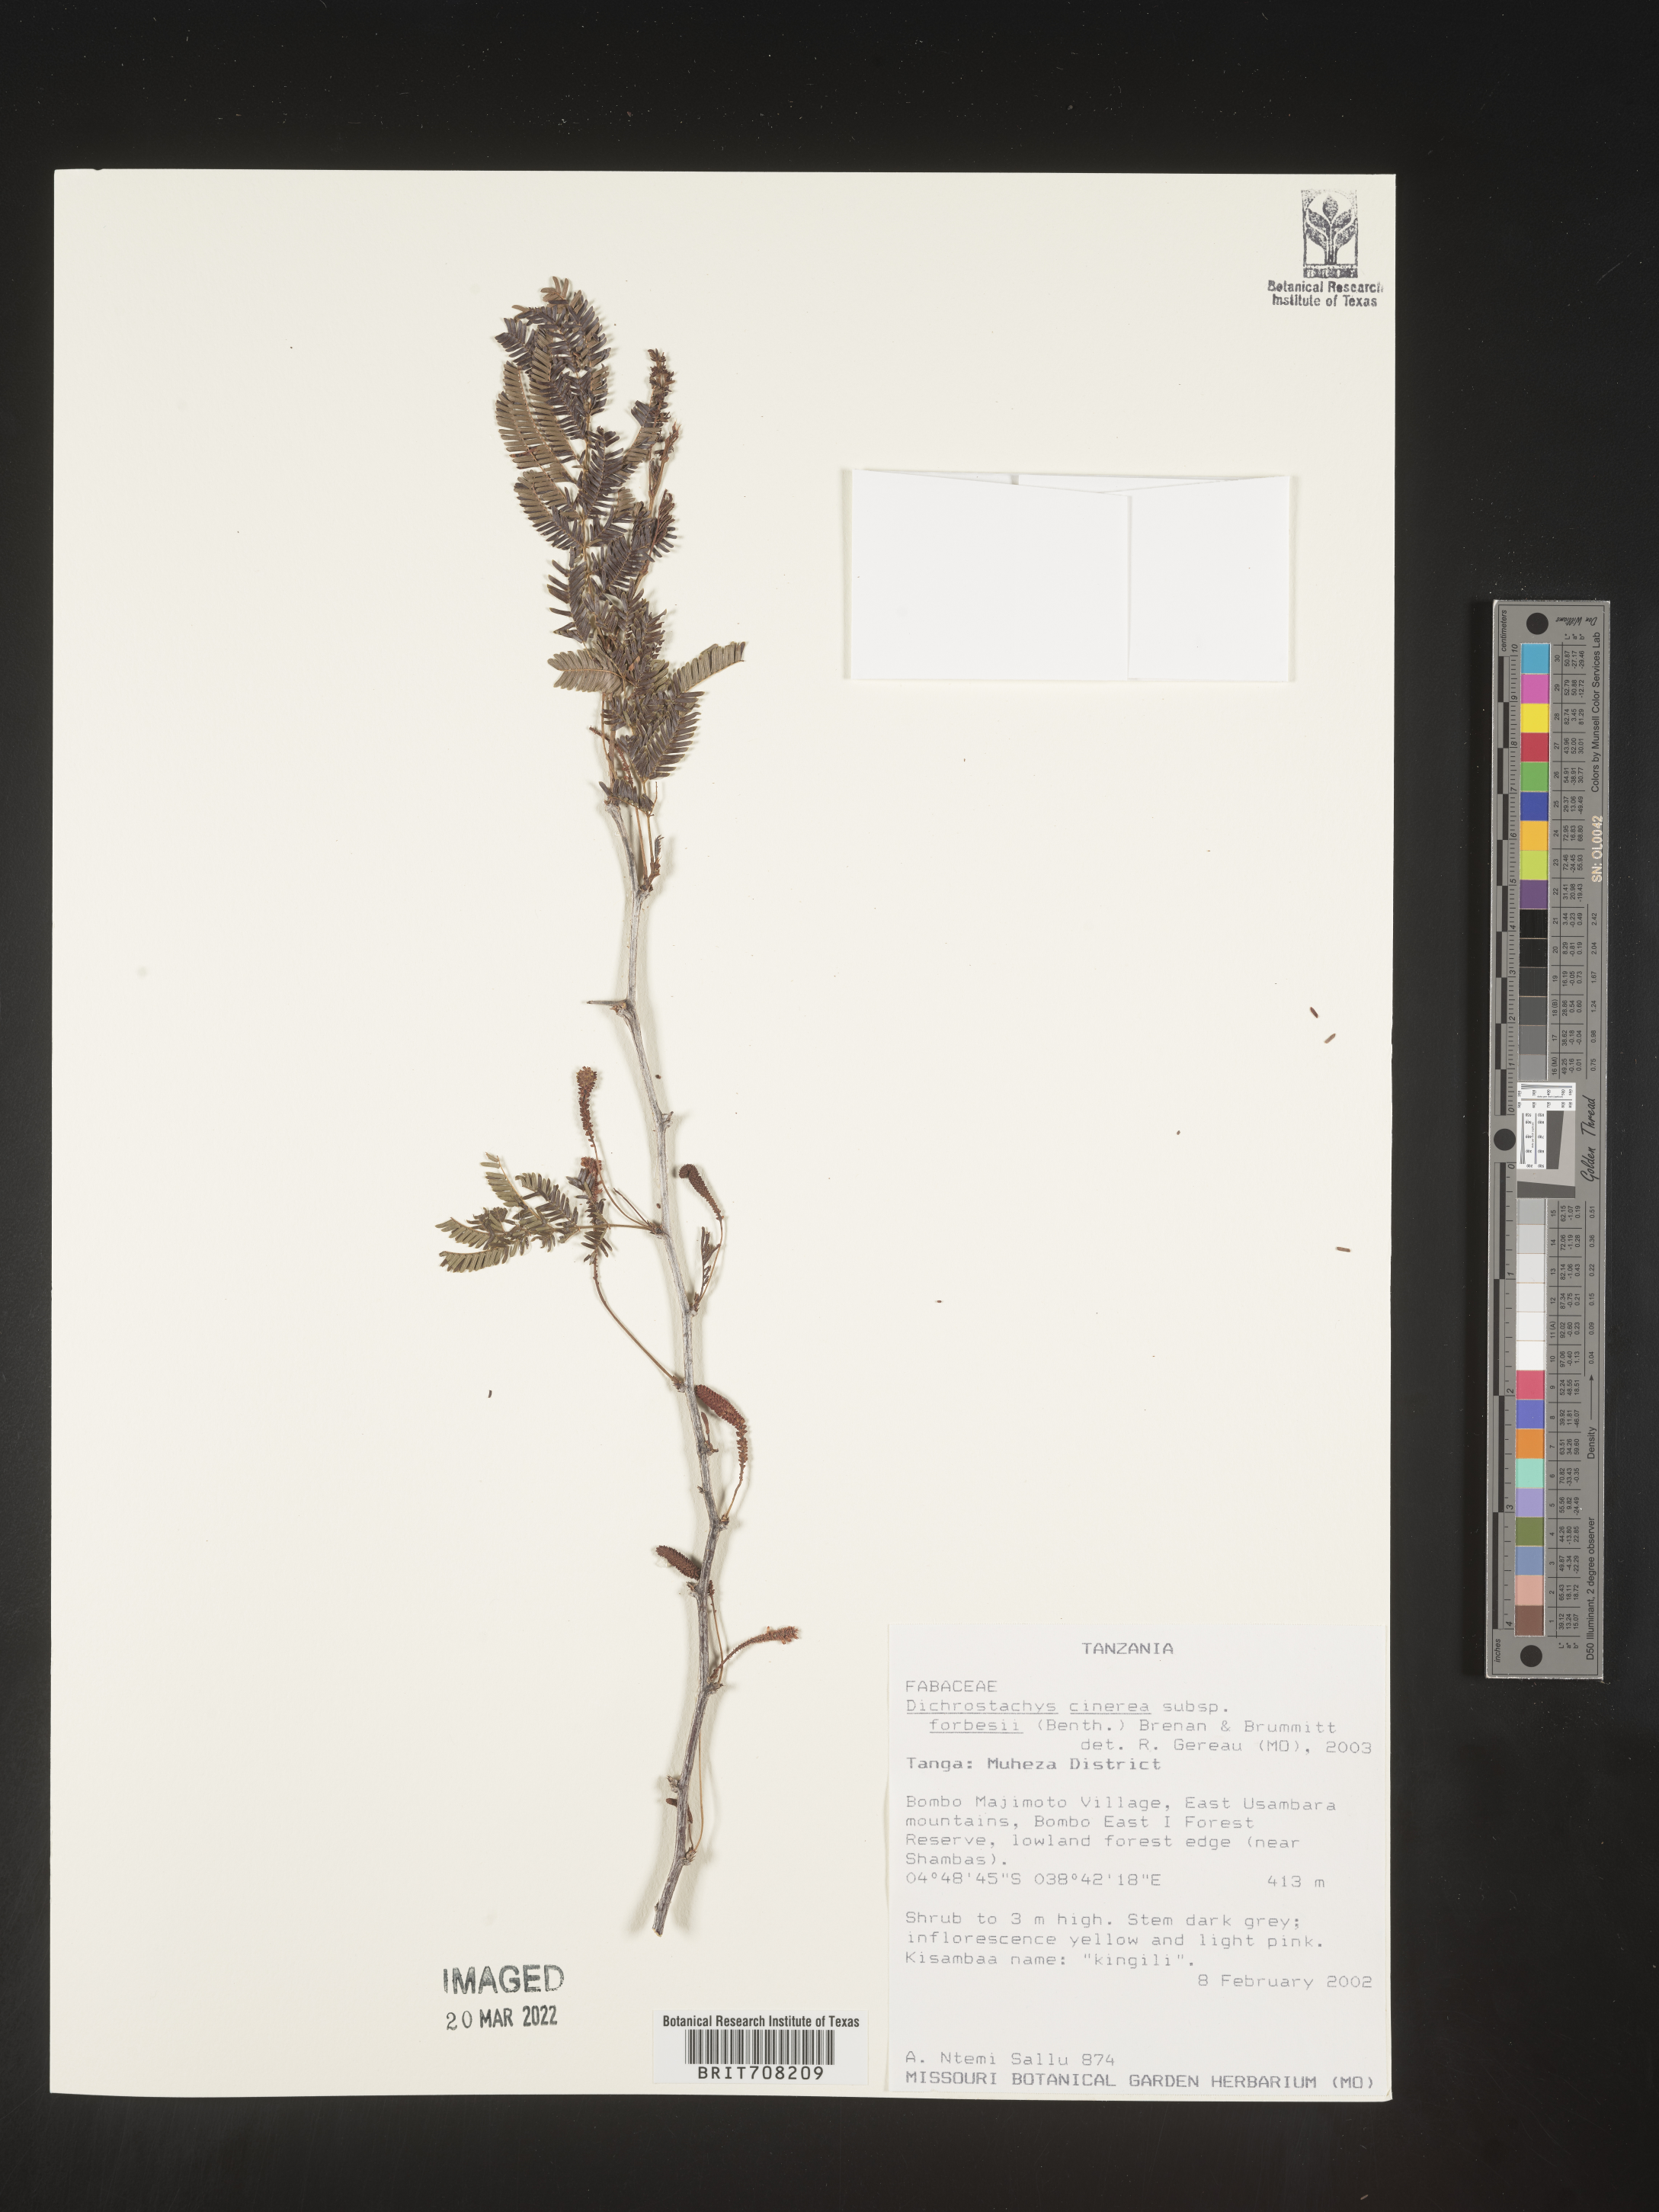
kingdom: Plantae
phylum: Tracheophyta
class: Magnoliopsida
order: Fabales
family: Fabaceae
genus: Dichrostachys
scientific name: Dichrostachys
